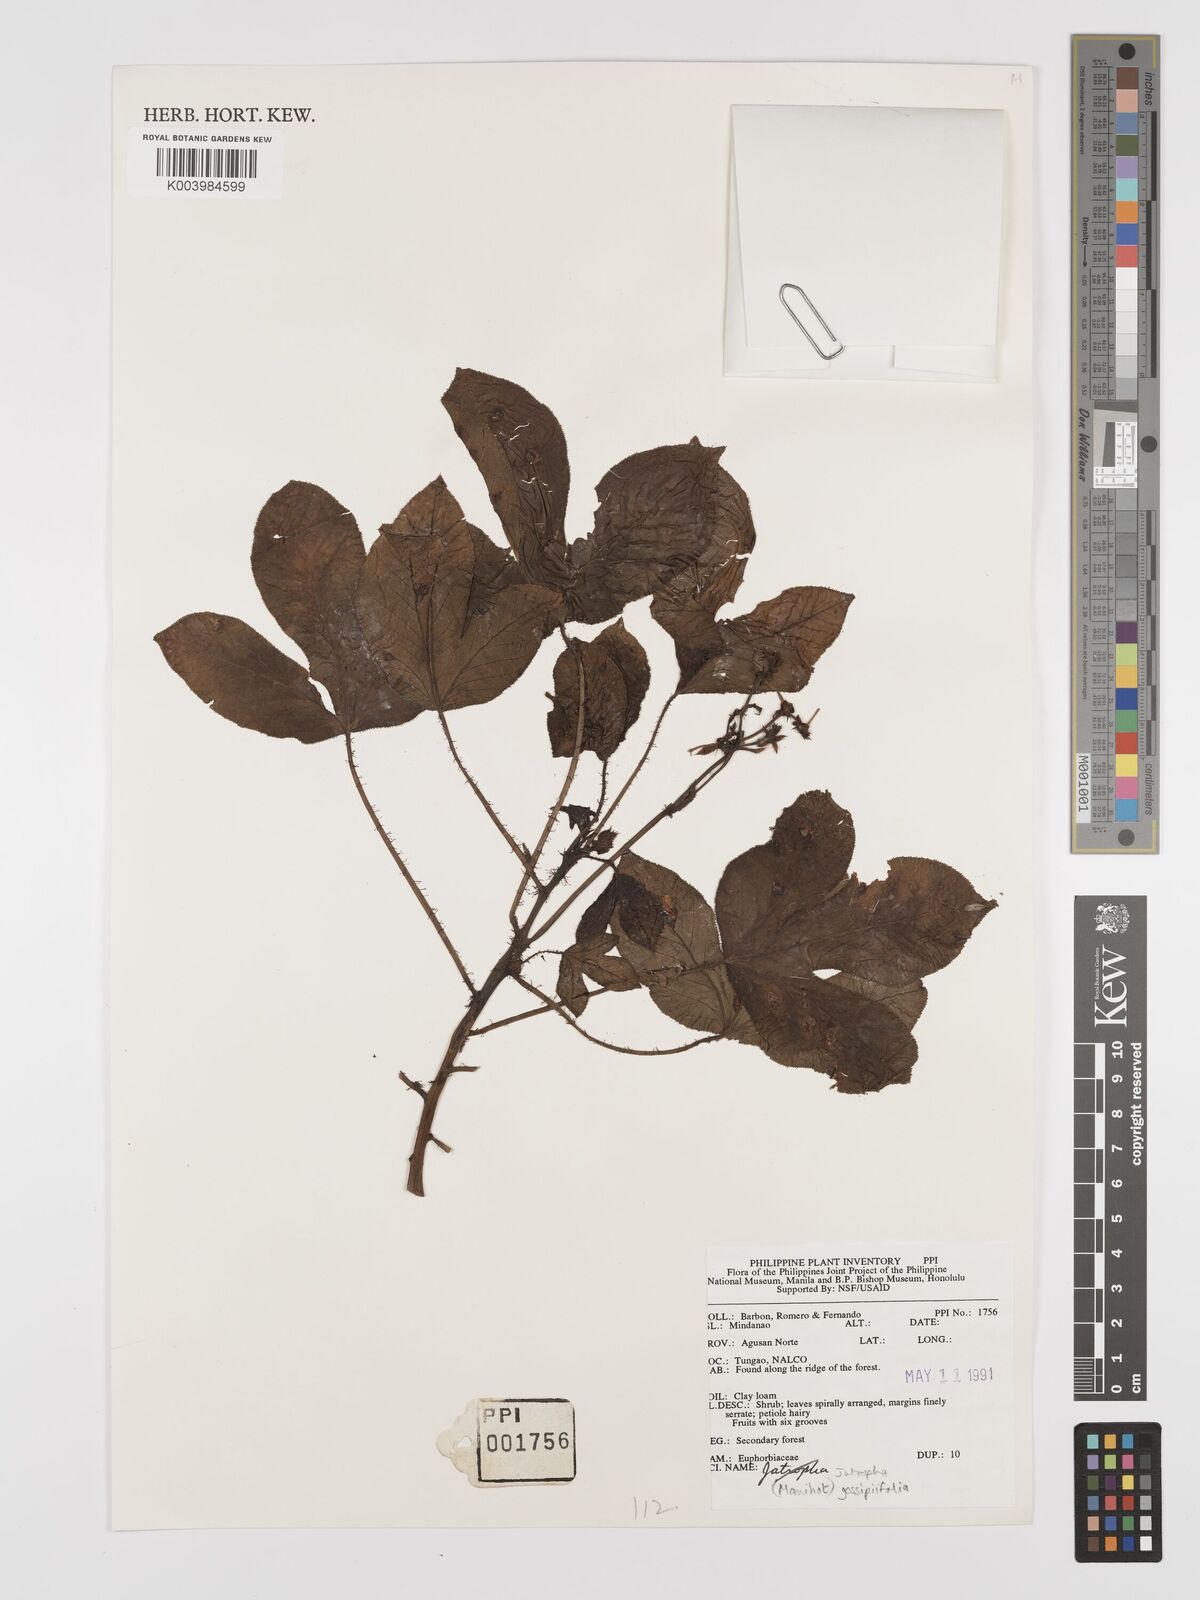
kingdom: Plantae
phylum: Tracheophyta
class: Magnoliopsida
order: Malpighiales
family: Euphorbiaceae
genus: Jatropha
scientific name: Jatropha gossypiifolia
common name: Bellyache bush
